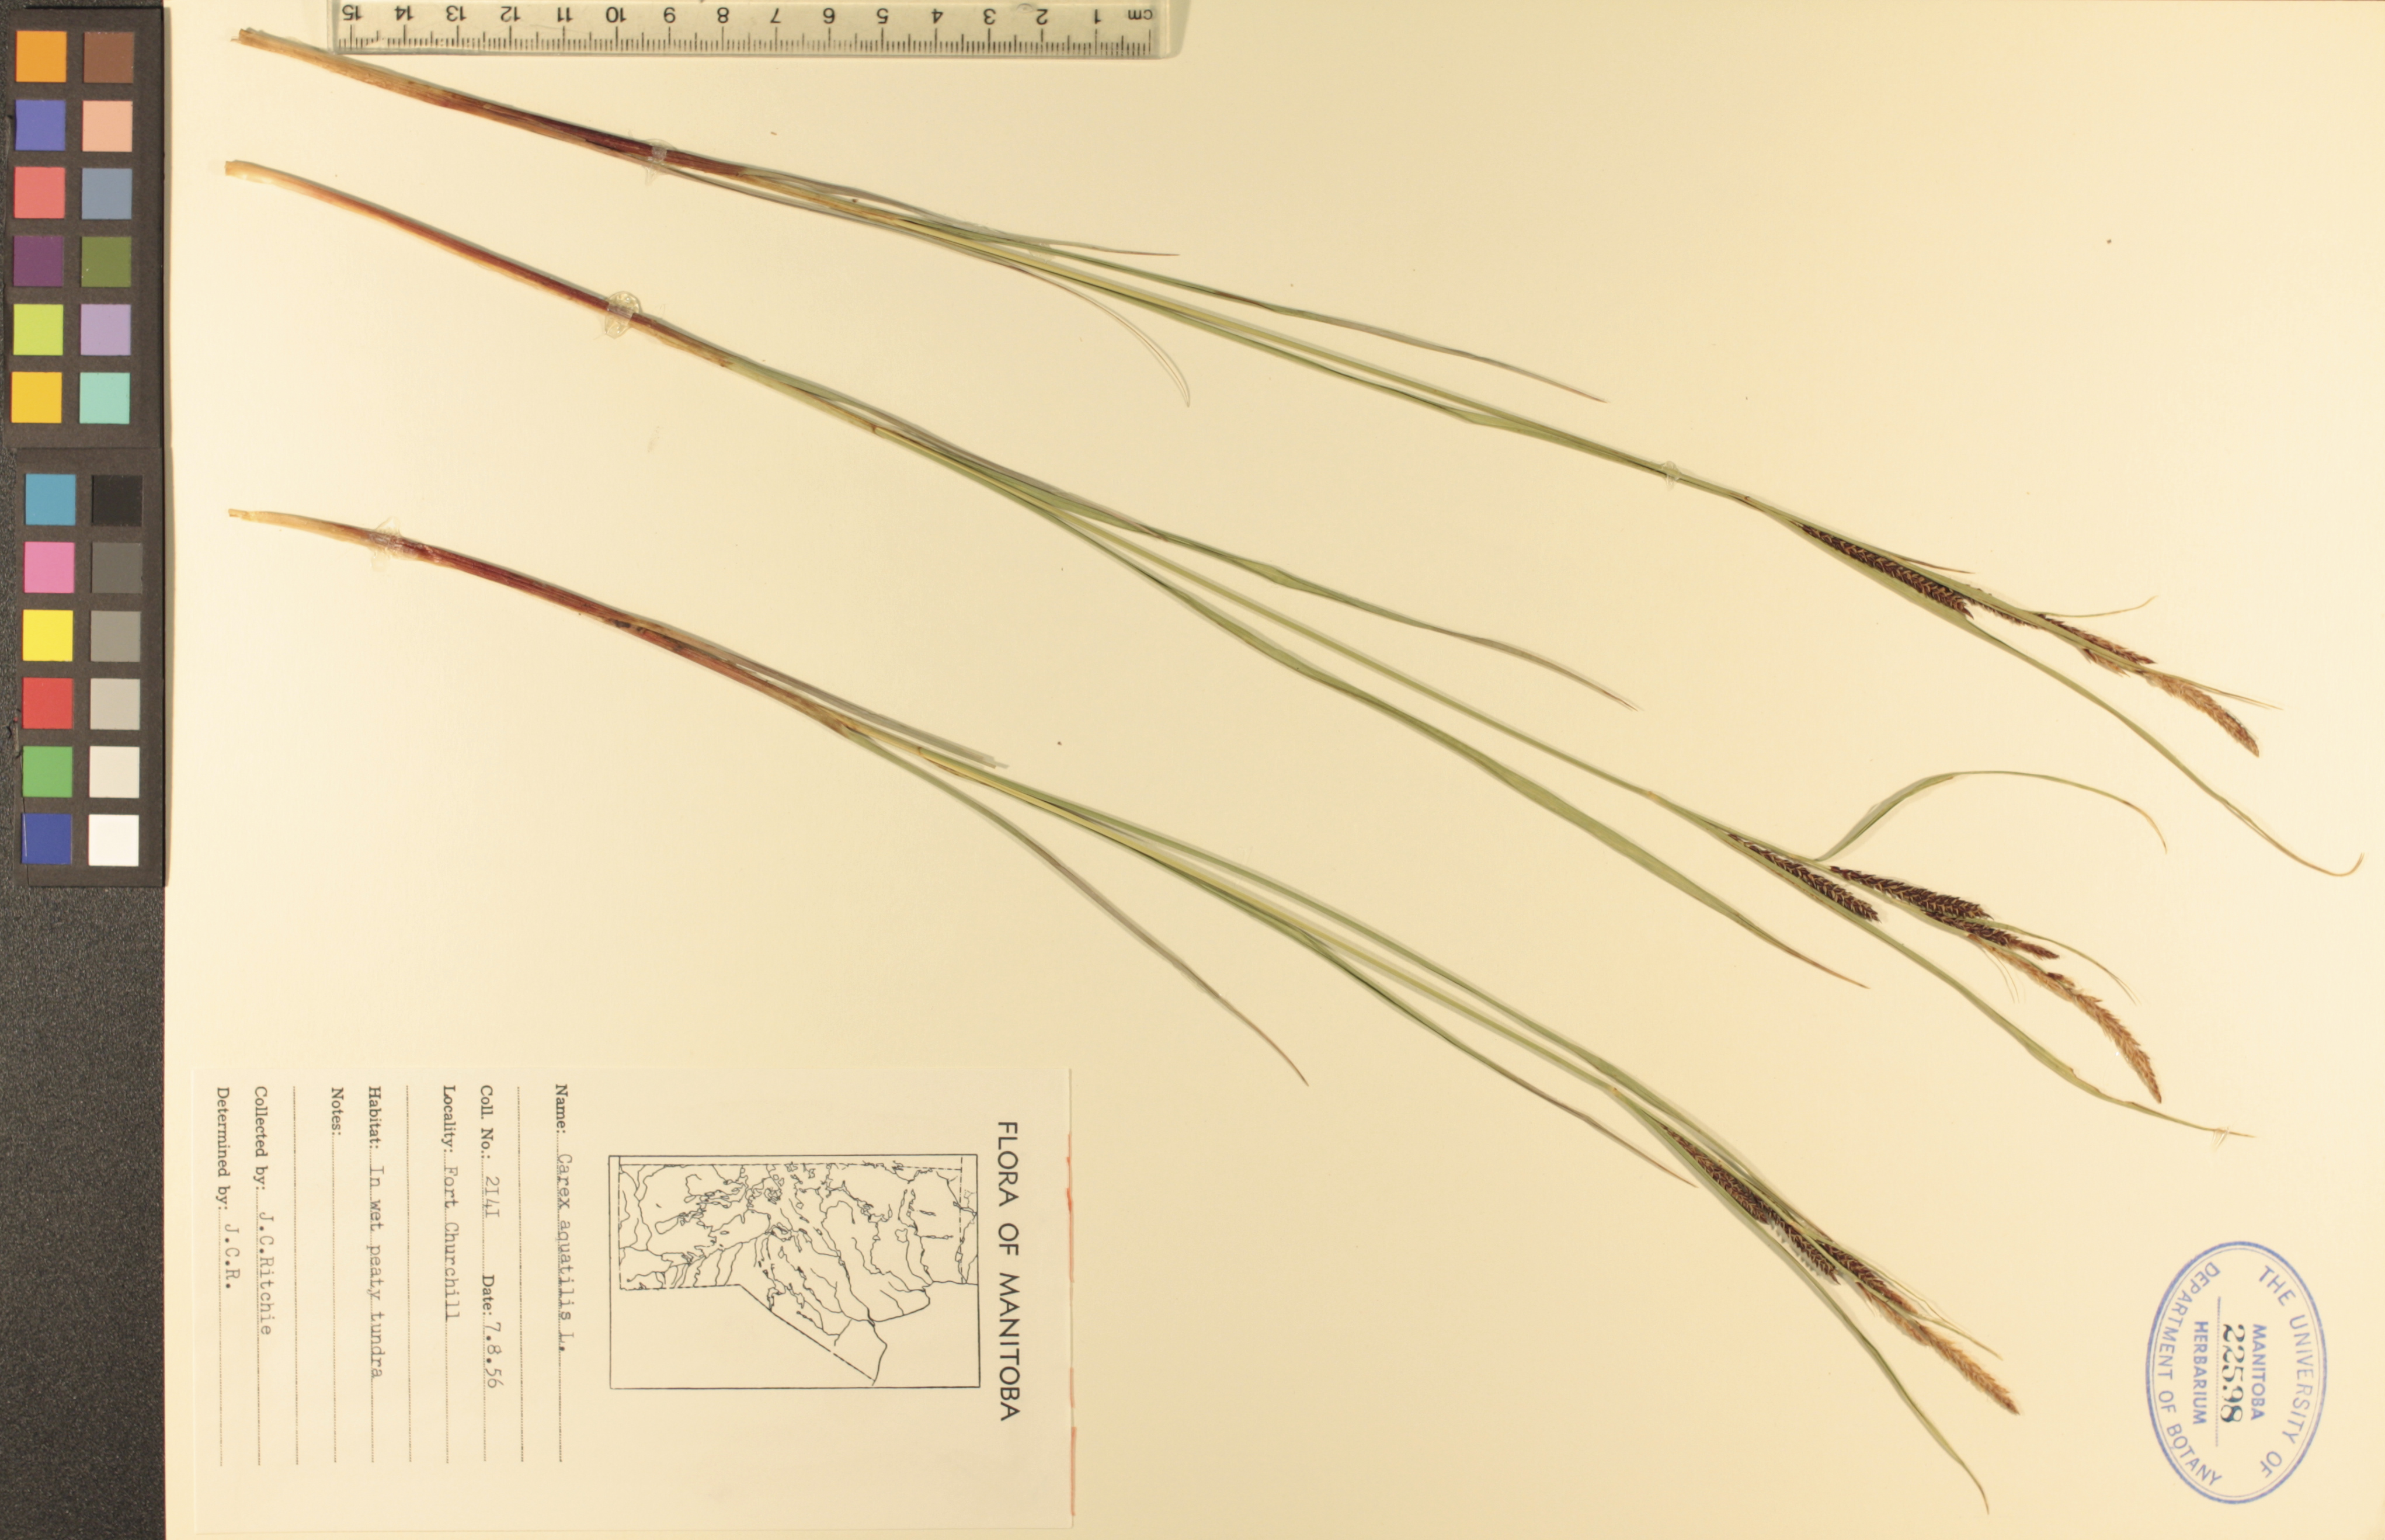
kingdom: Plantae
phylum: Tracheophyta
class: Liliopsida
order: Poales
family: Cyperaceae
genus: Carex
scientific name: Carex aquatilis
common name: Water sedge
